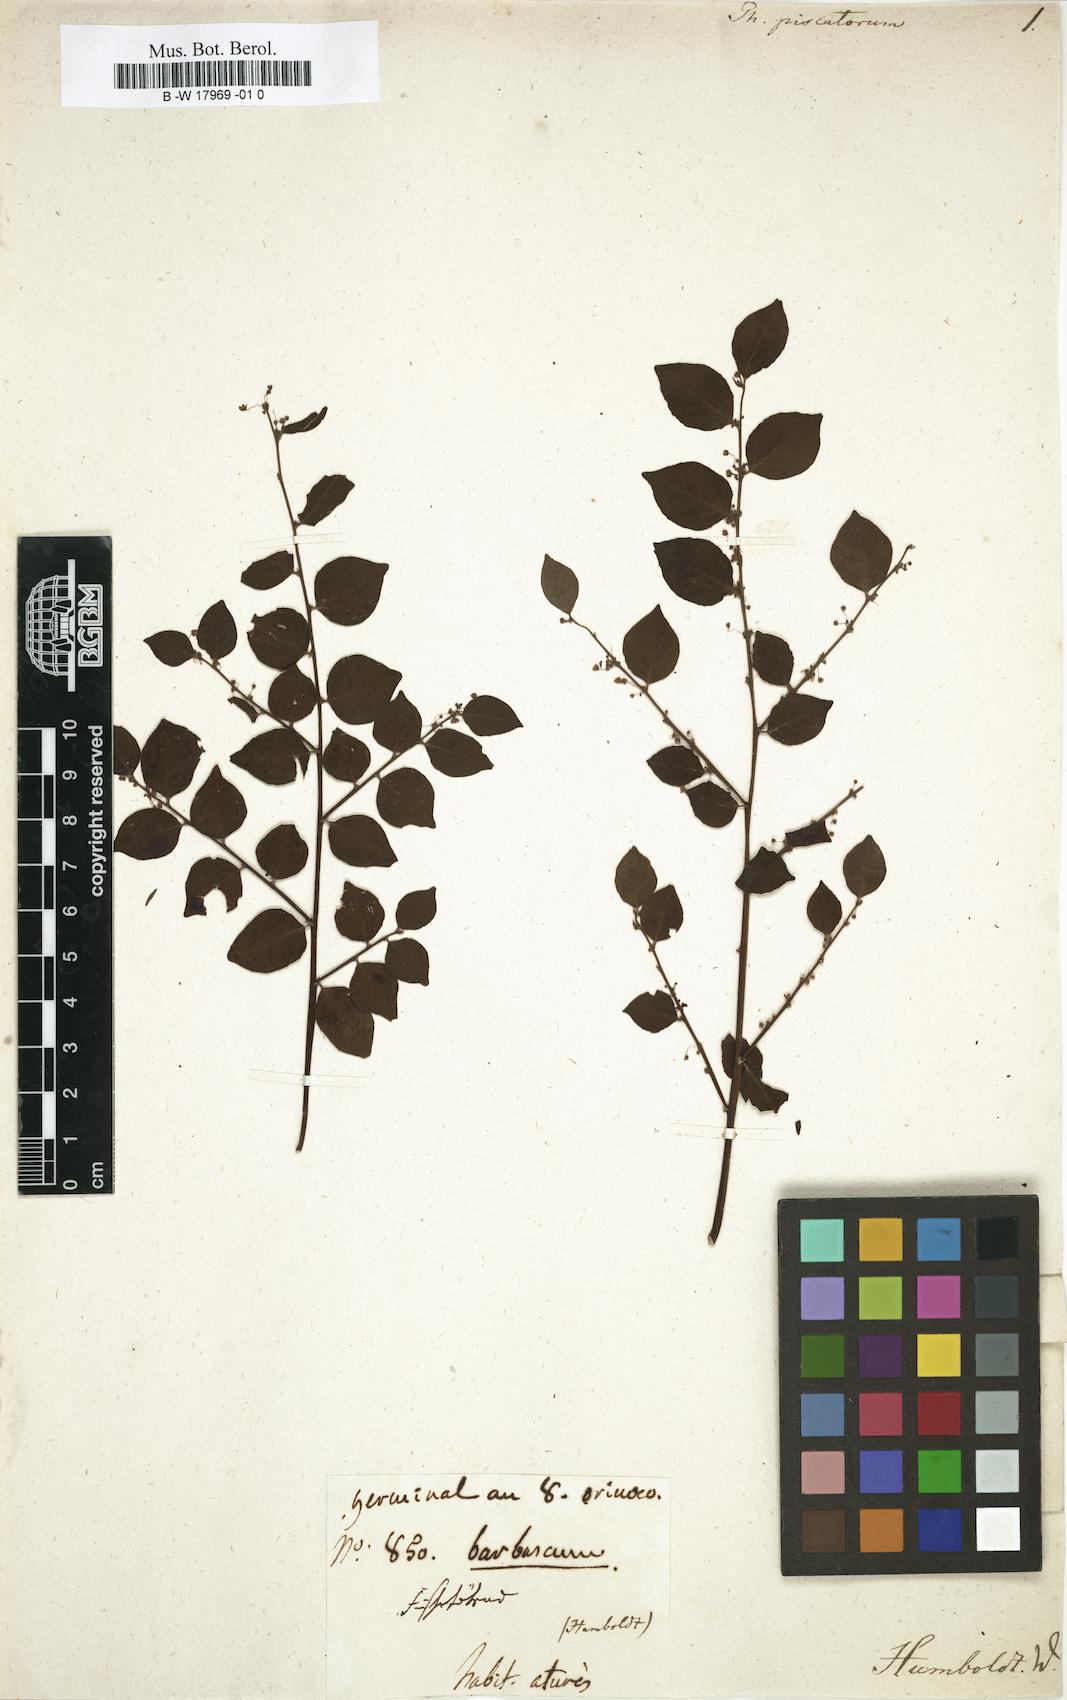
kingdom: Plantae
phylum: Tracheophyta
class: Magnoliopsida
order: Malpighiales
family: Phyllanthaceae
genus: Phyllanthus
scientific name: Phyllanthus brasiliensis
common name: Fish-poison
